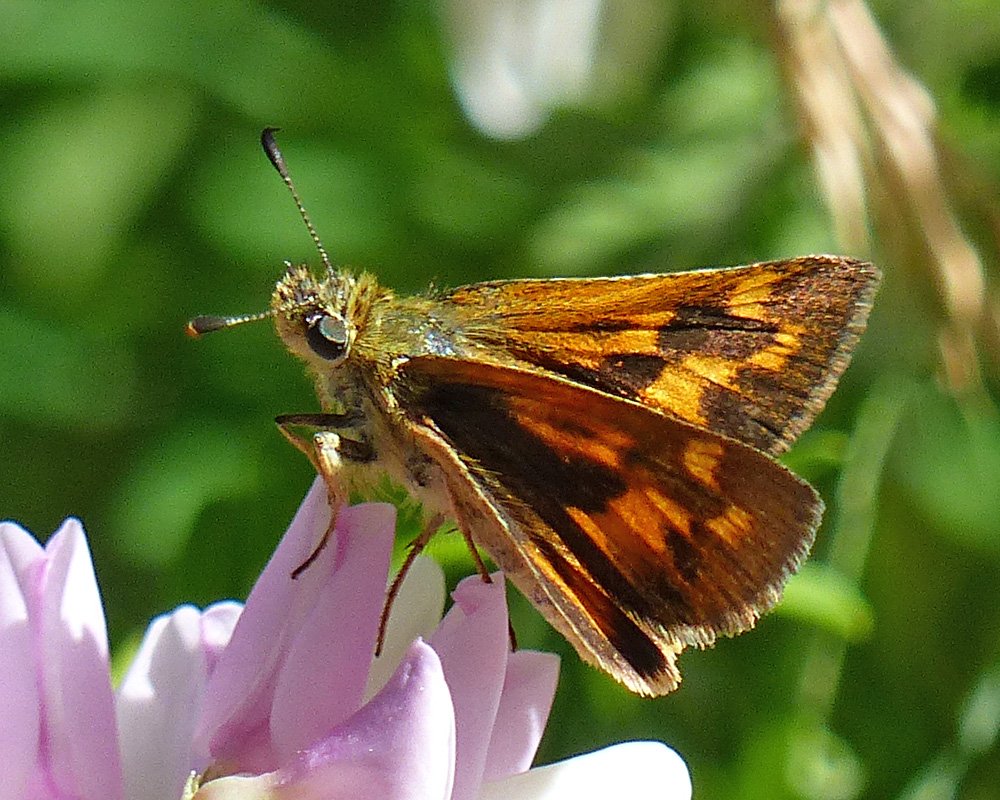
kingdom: Animalia
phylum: Arthropoda
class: Insecta
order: Lepidoptera
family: Hesperiidae
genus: Ochlodes
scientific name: Ochlodes sylvanoides
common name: Woodland Skipper
